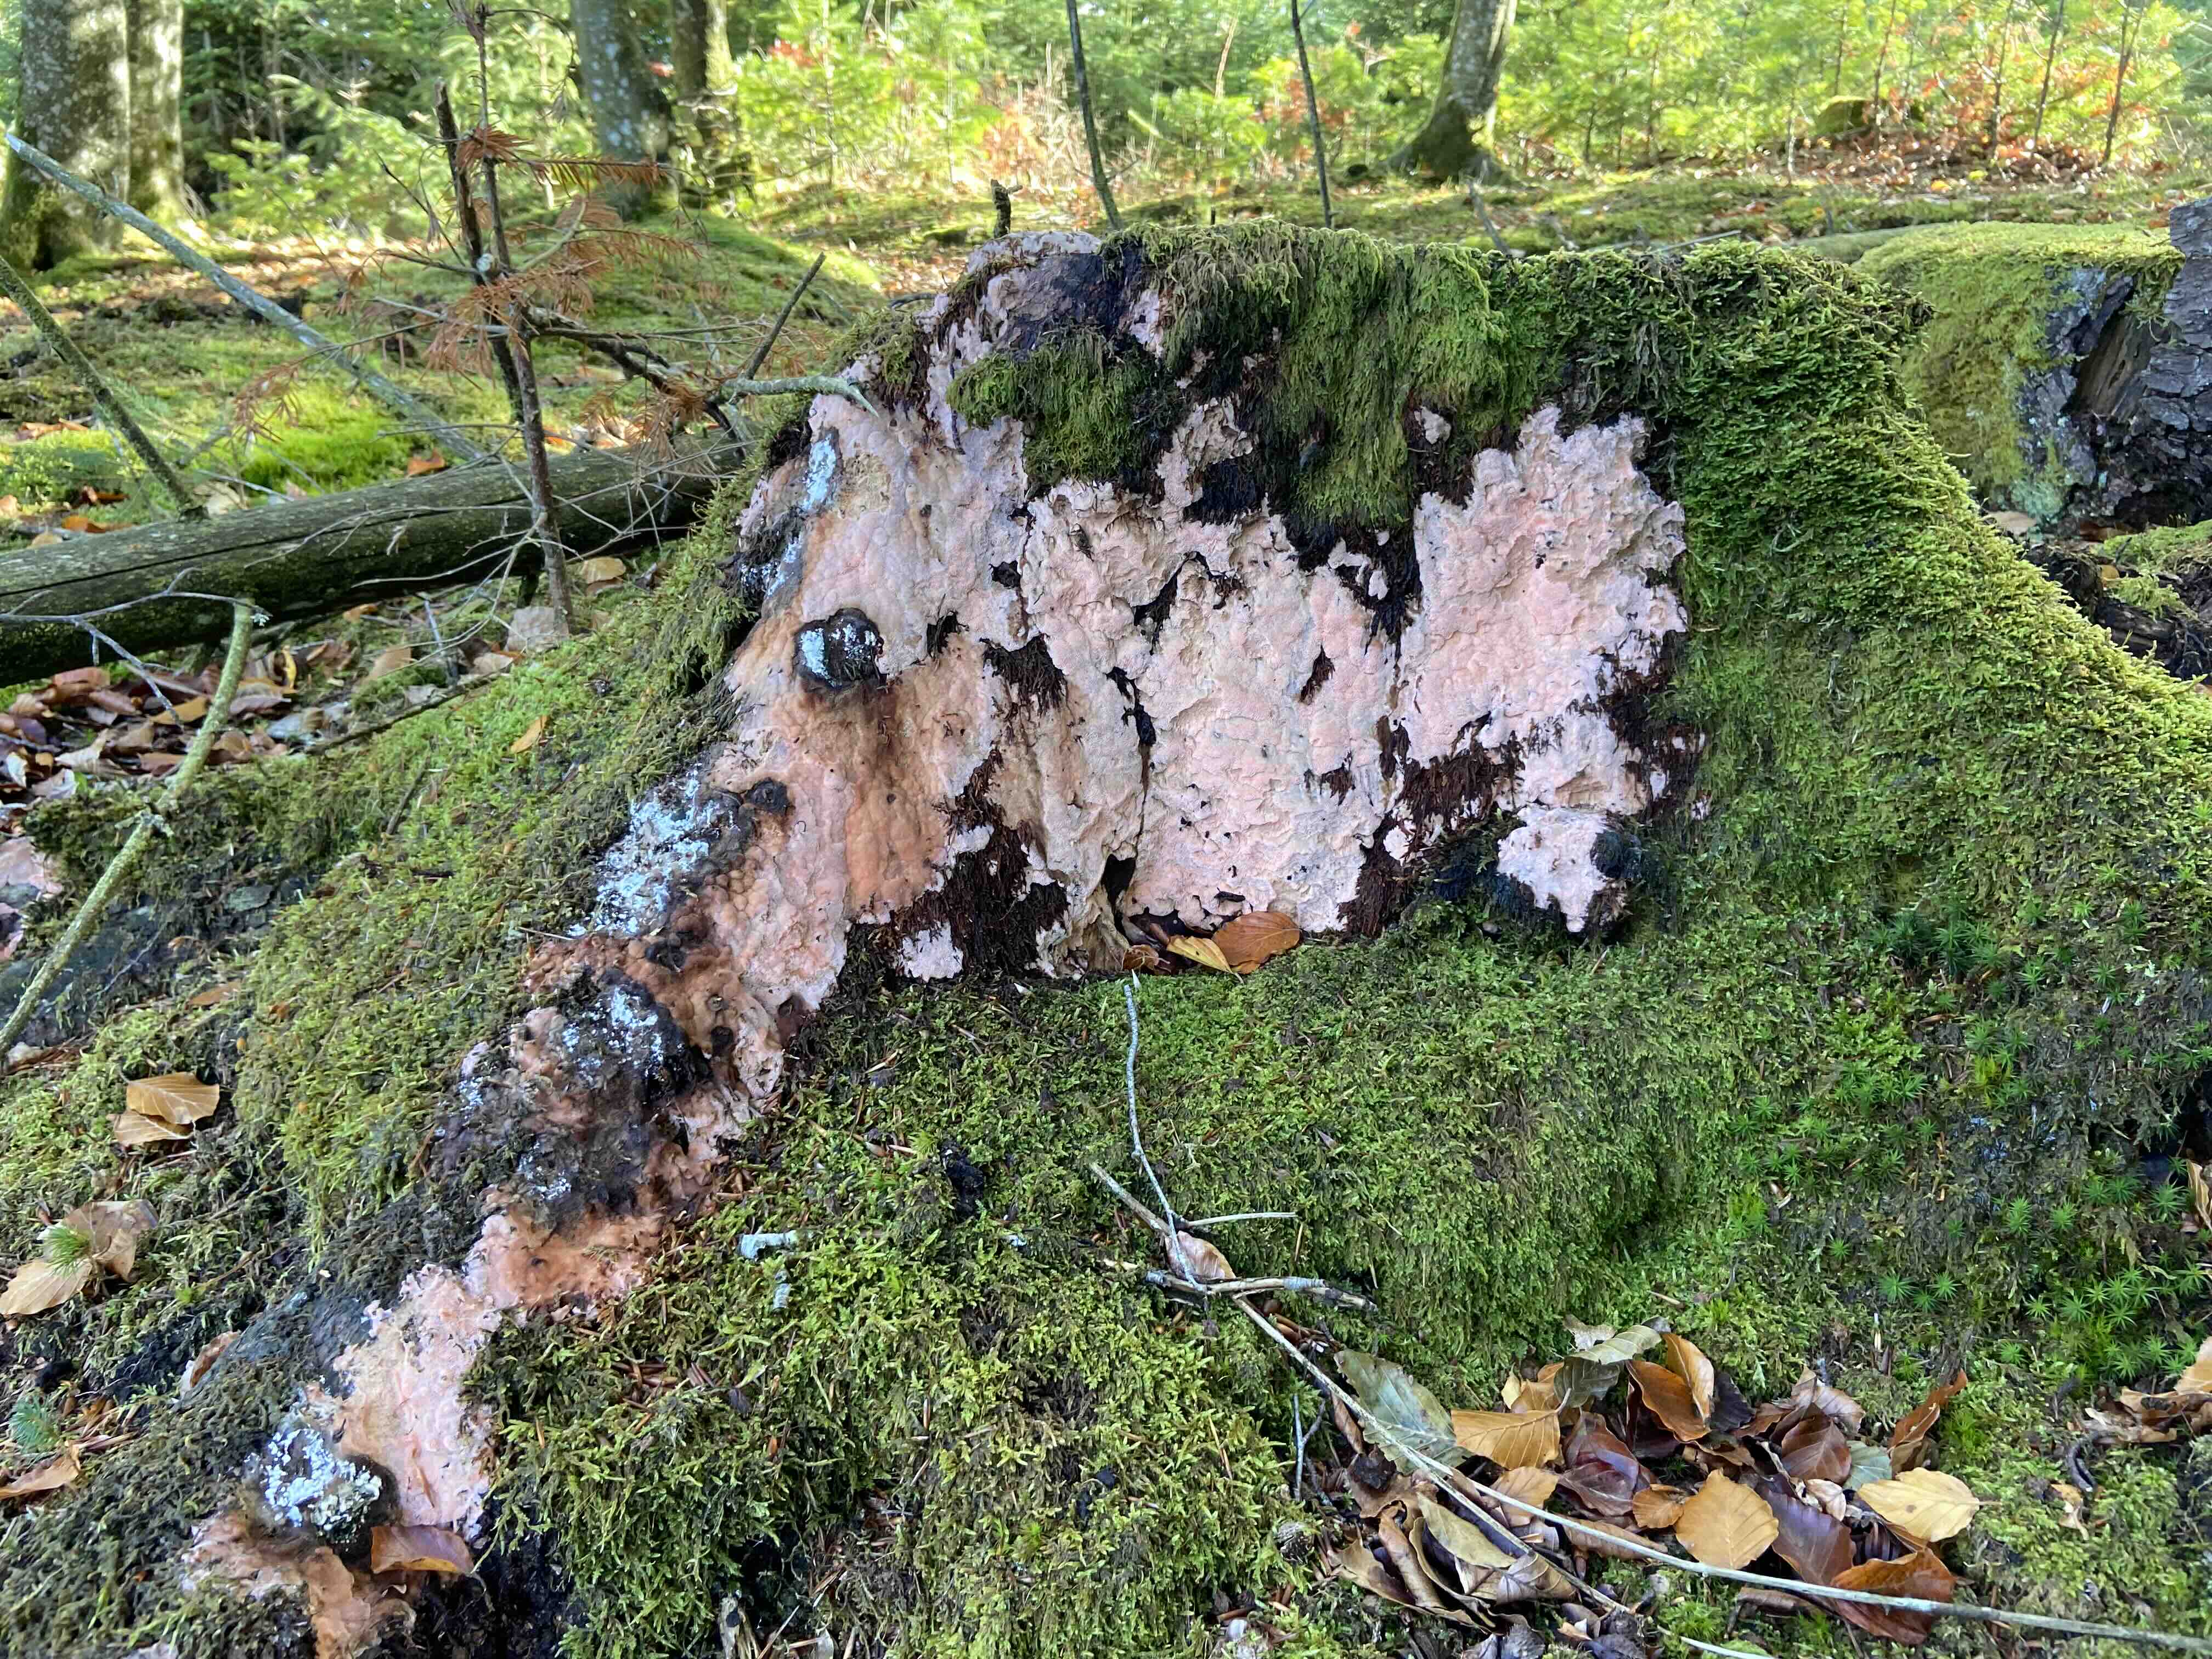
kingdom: Fungi
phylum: Basidiomycota
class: Agaricomycetes
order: Polyporales
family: Polyporaceae
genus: Rhodonia
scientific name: Rhodonia placenta
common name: rosaporesvamp
